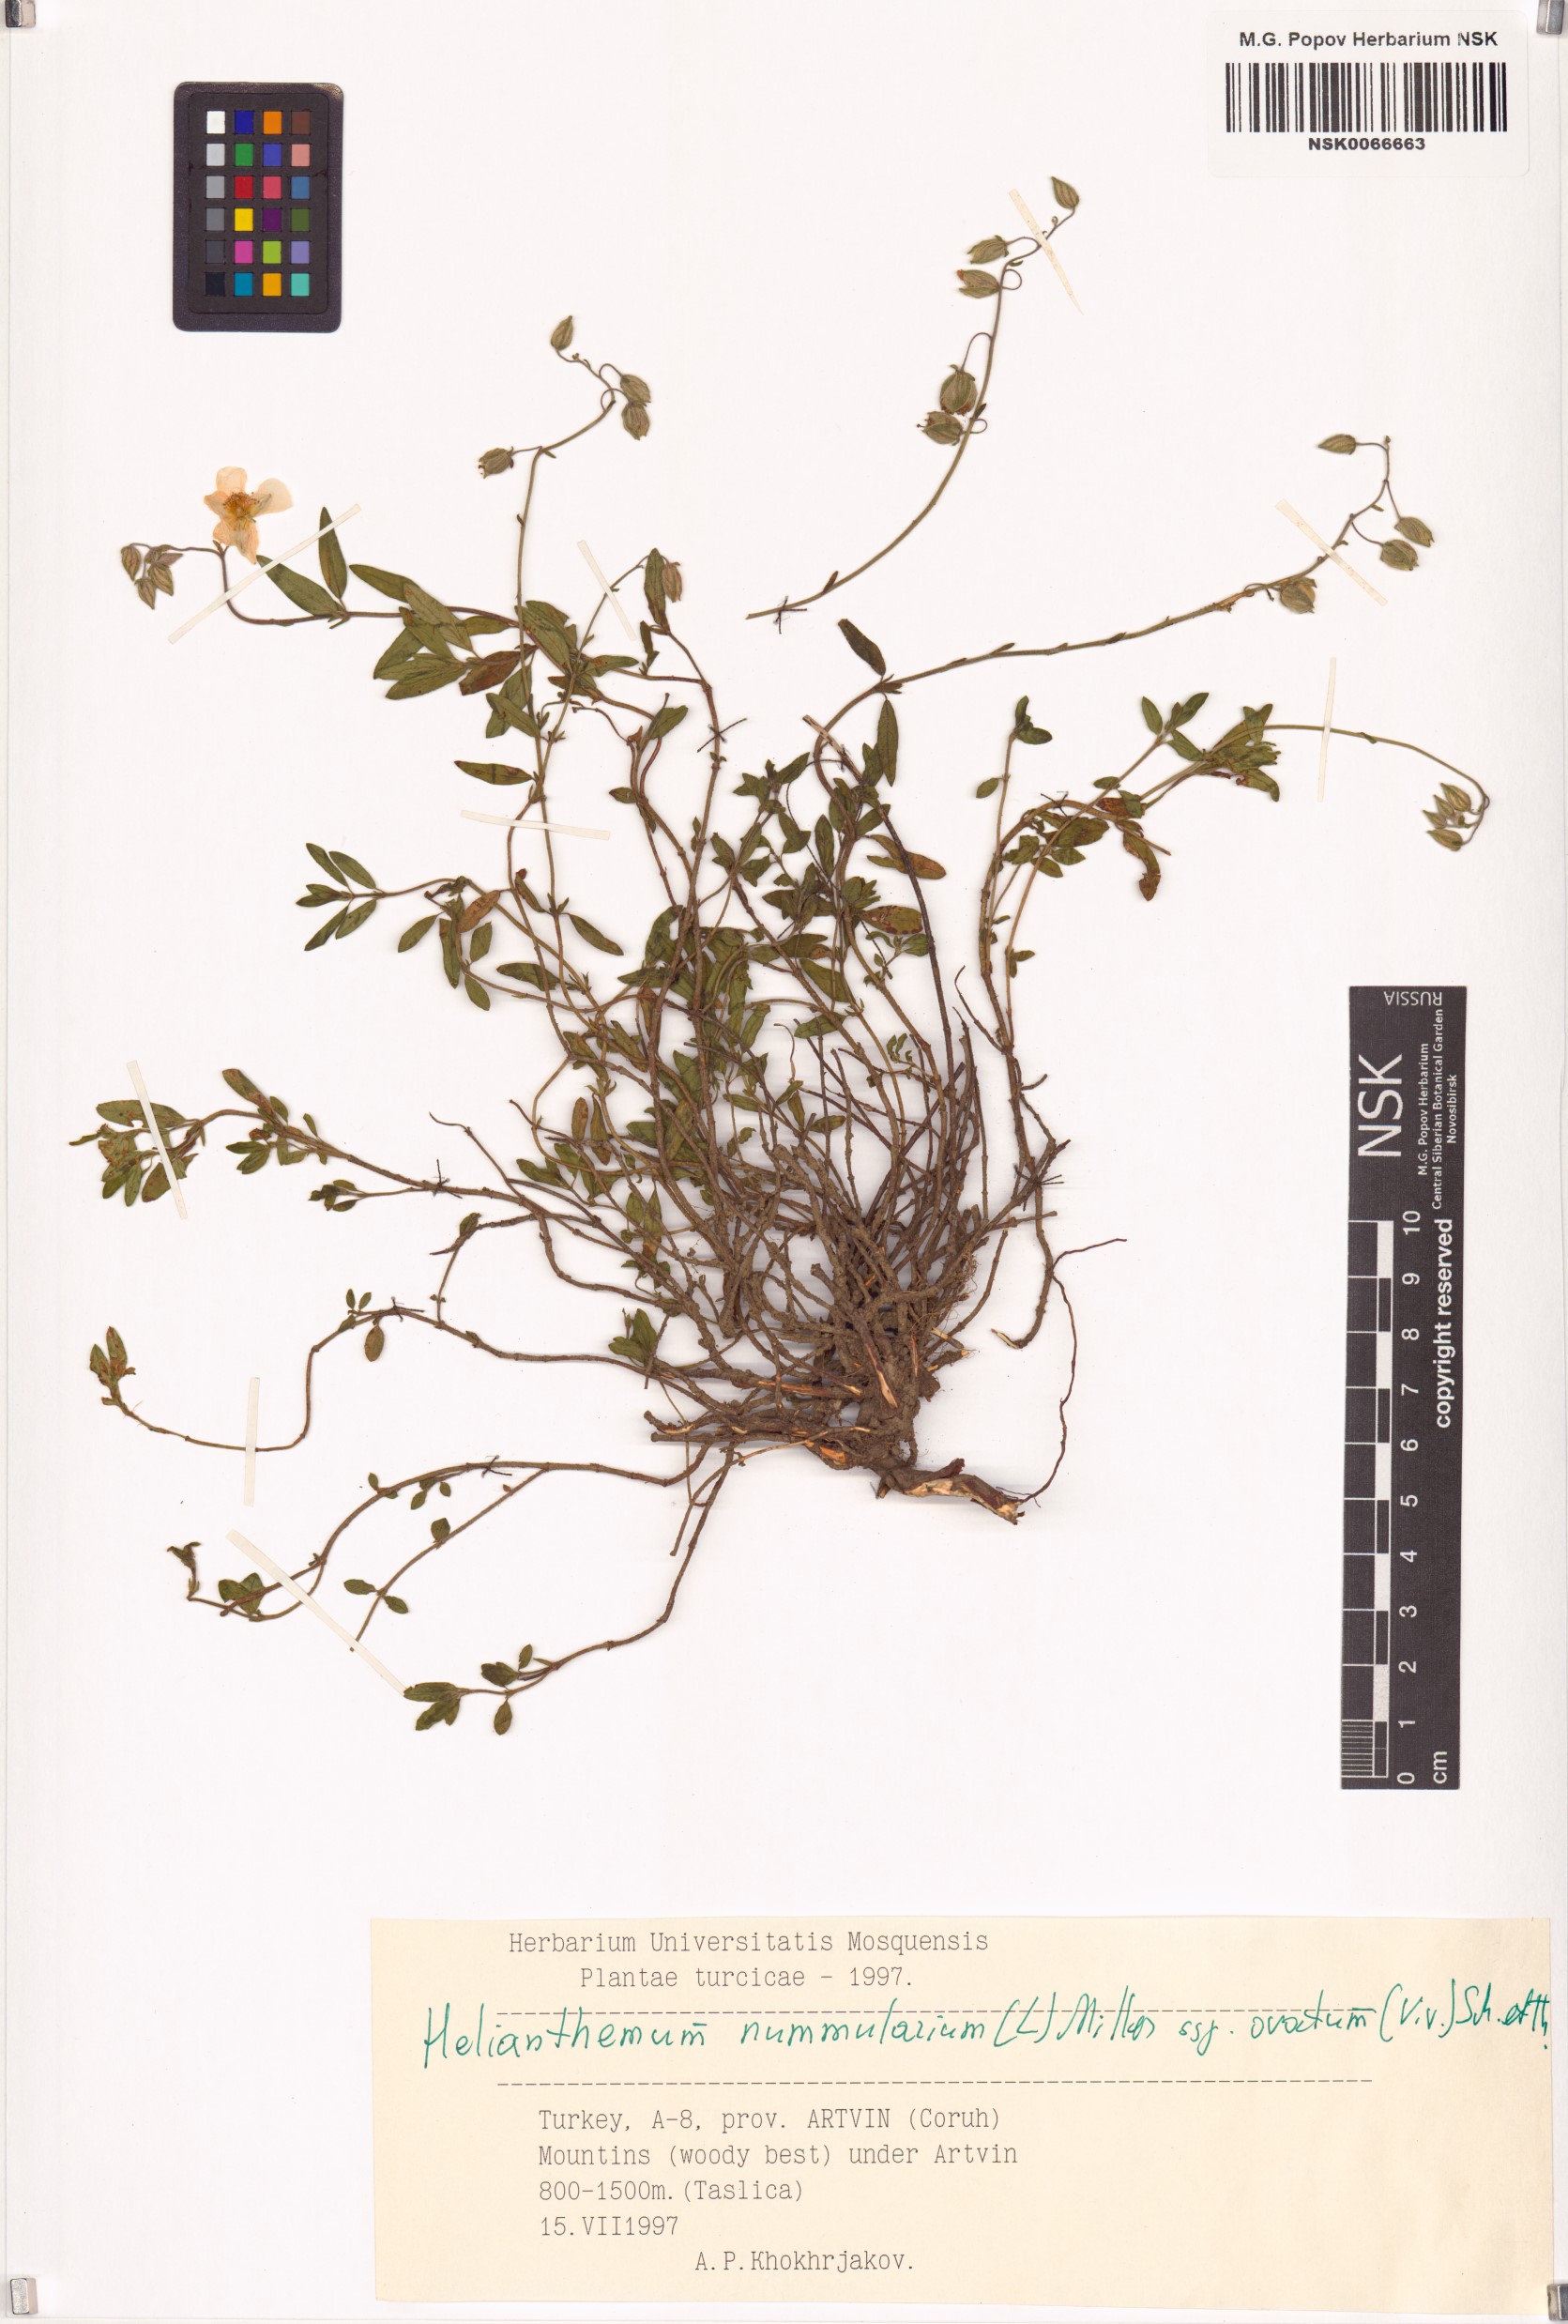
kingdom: Plantae
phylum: Tracheophyta
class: Magnoliopsida
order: Malvales
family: Cistaceae
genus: Helianthemum
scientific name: Helianthemum nummularium
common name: Common rock-rose
